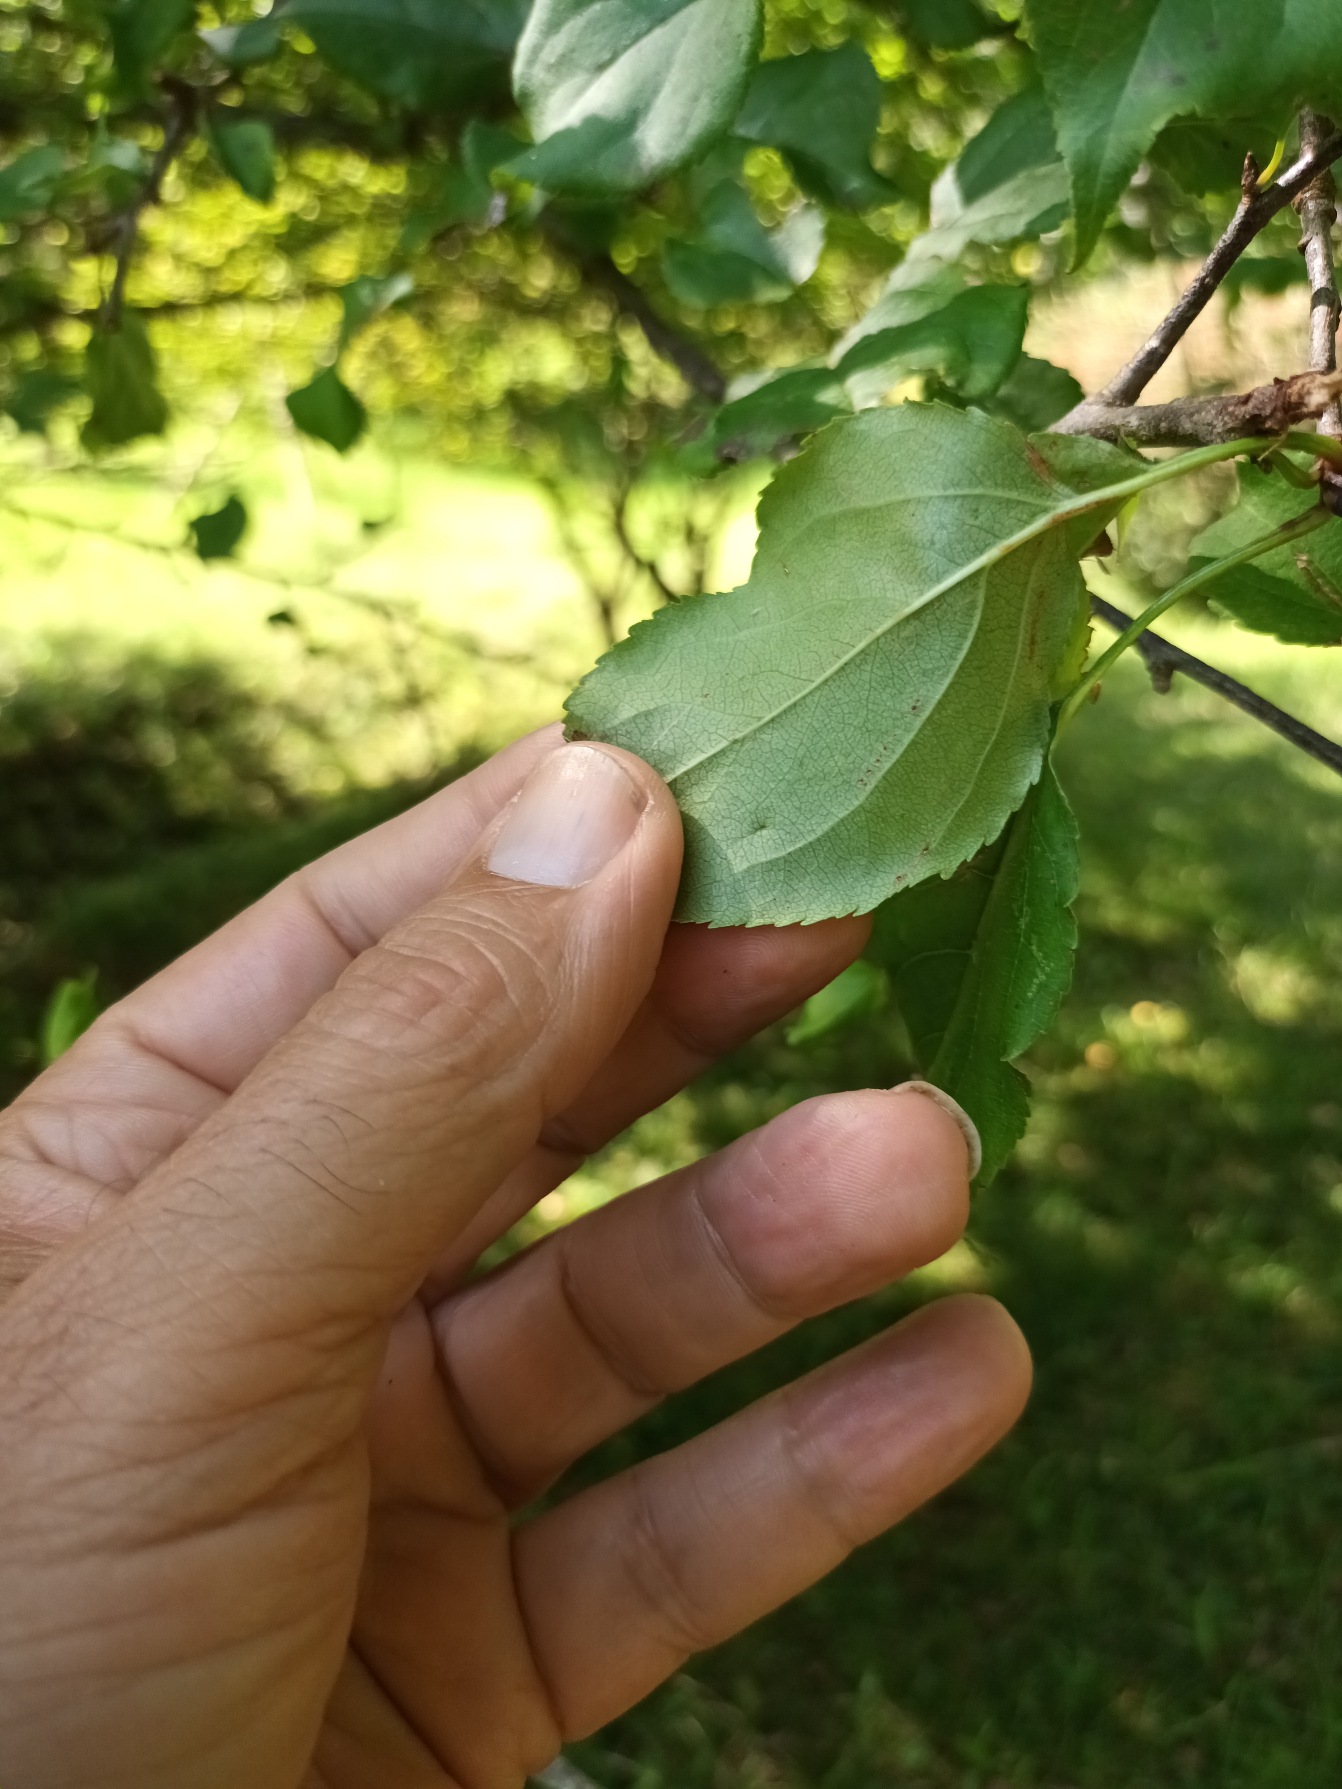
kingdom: Plantae
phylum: Tracheophyta
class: Magnoliopsida
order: Rosales
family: Rosaceae
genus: Malus
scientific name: Malus sylvestris
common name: Skov-æble
